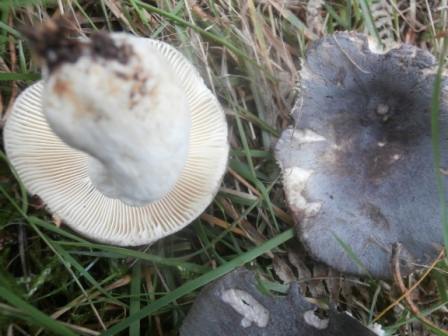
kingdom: Fungi
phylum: Basidiomycota
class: Agaricomycetes
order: Russulales
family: Russulaceae
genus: Russula
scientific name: Russula parazurea
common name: blågrå skørhat
